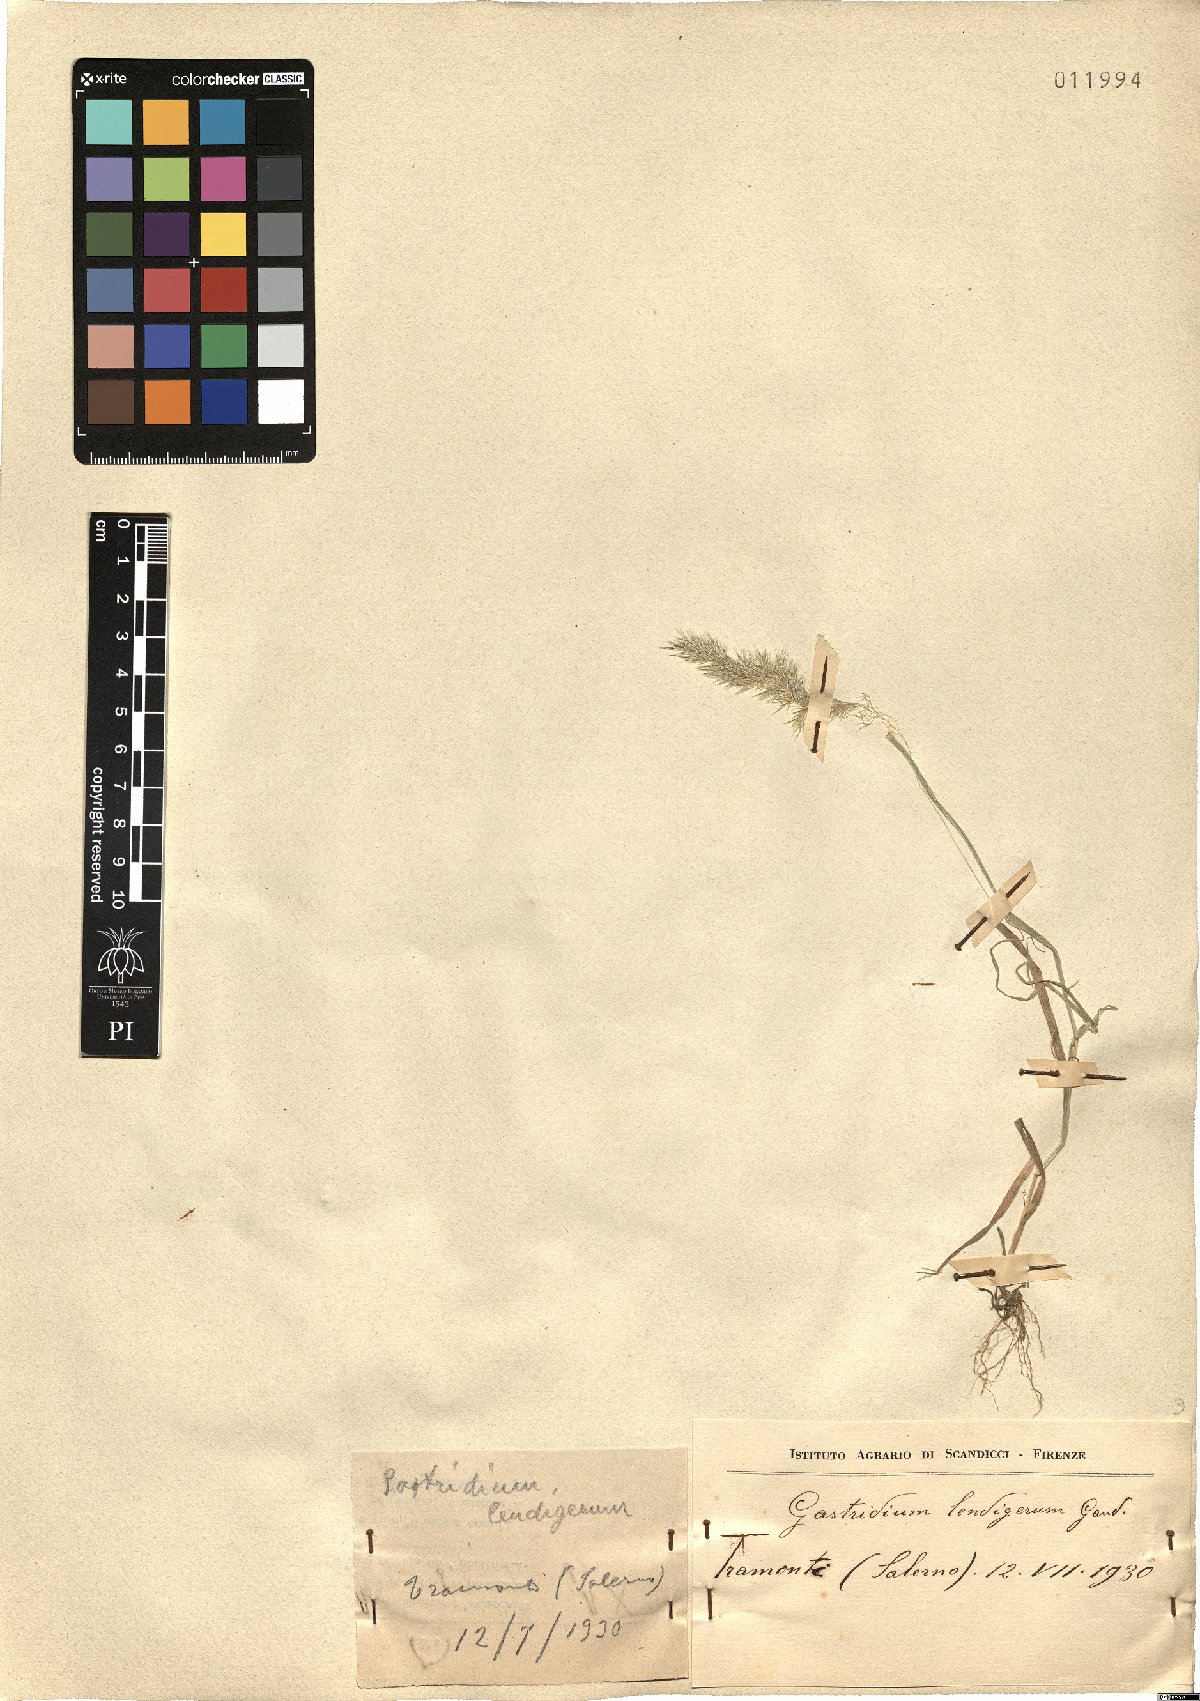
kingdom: Plantae
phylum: Tracheophyta
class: Liliopsida
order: Poales
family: Poaceae
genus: Gastridium
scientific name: Gastridium ventricosum
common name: Nit-grass
